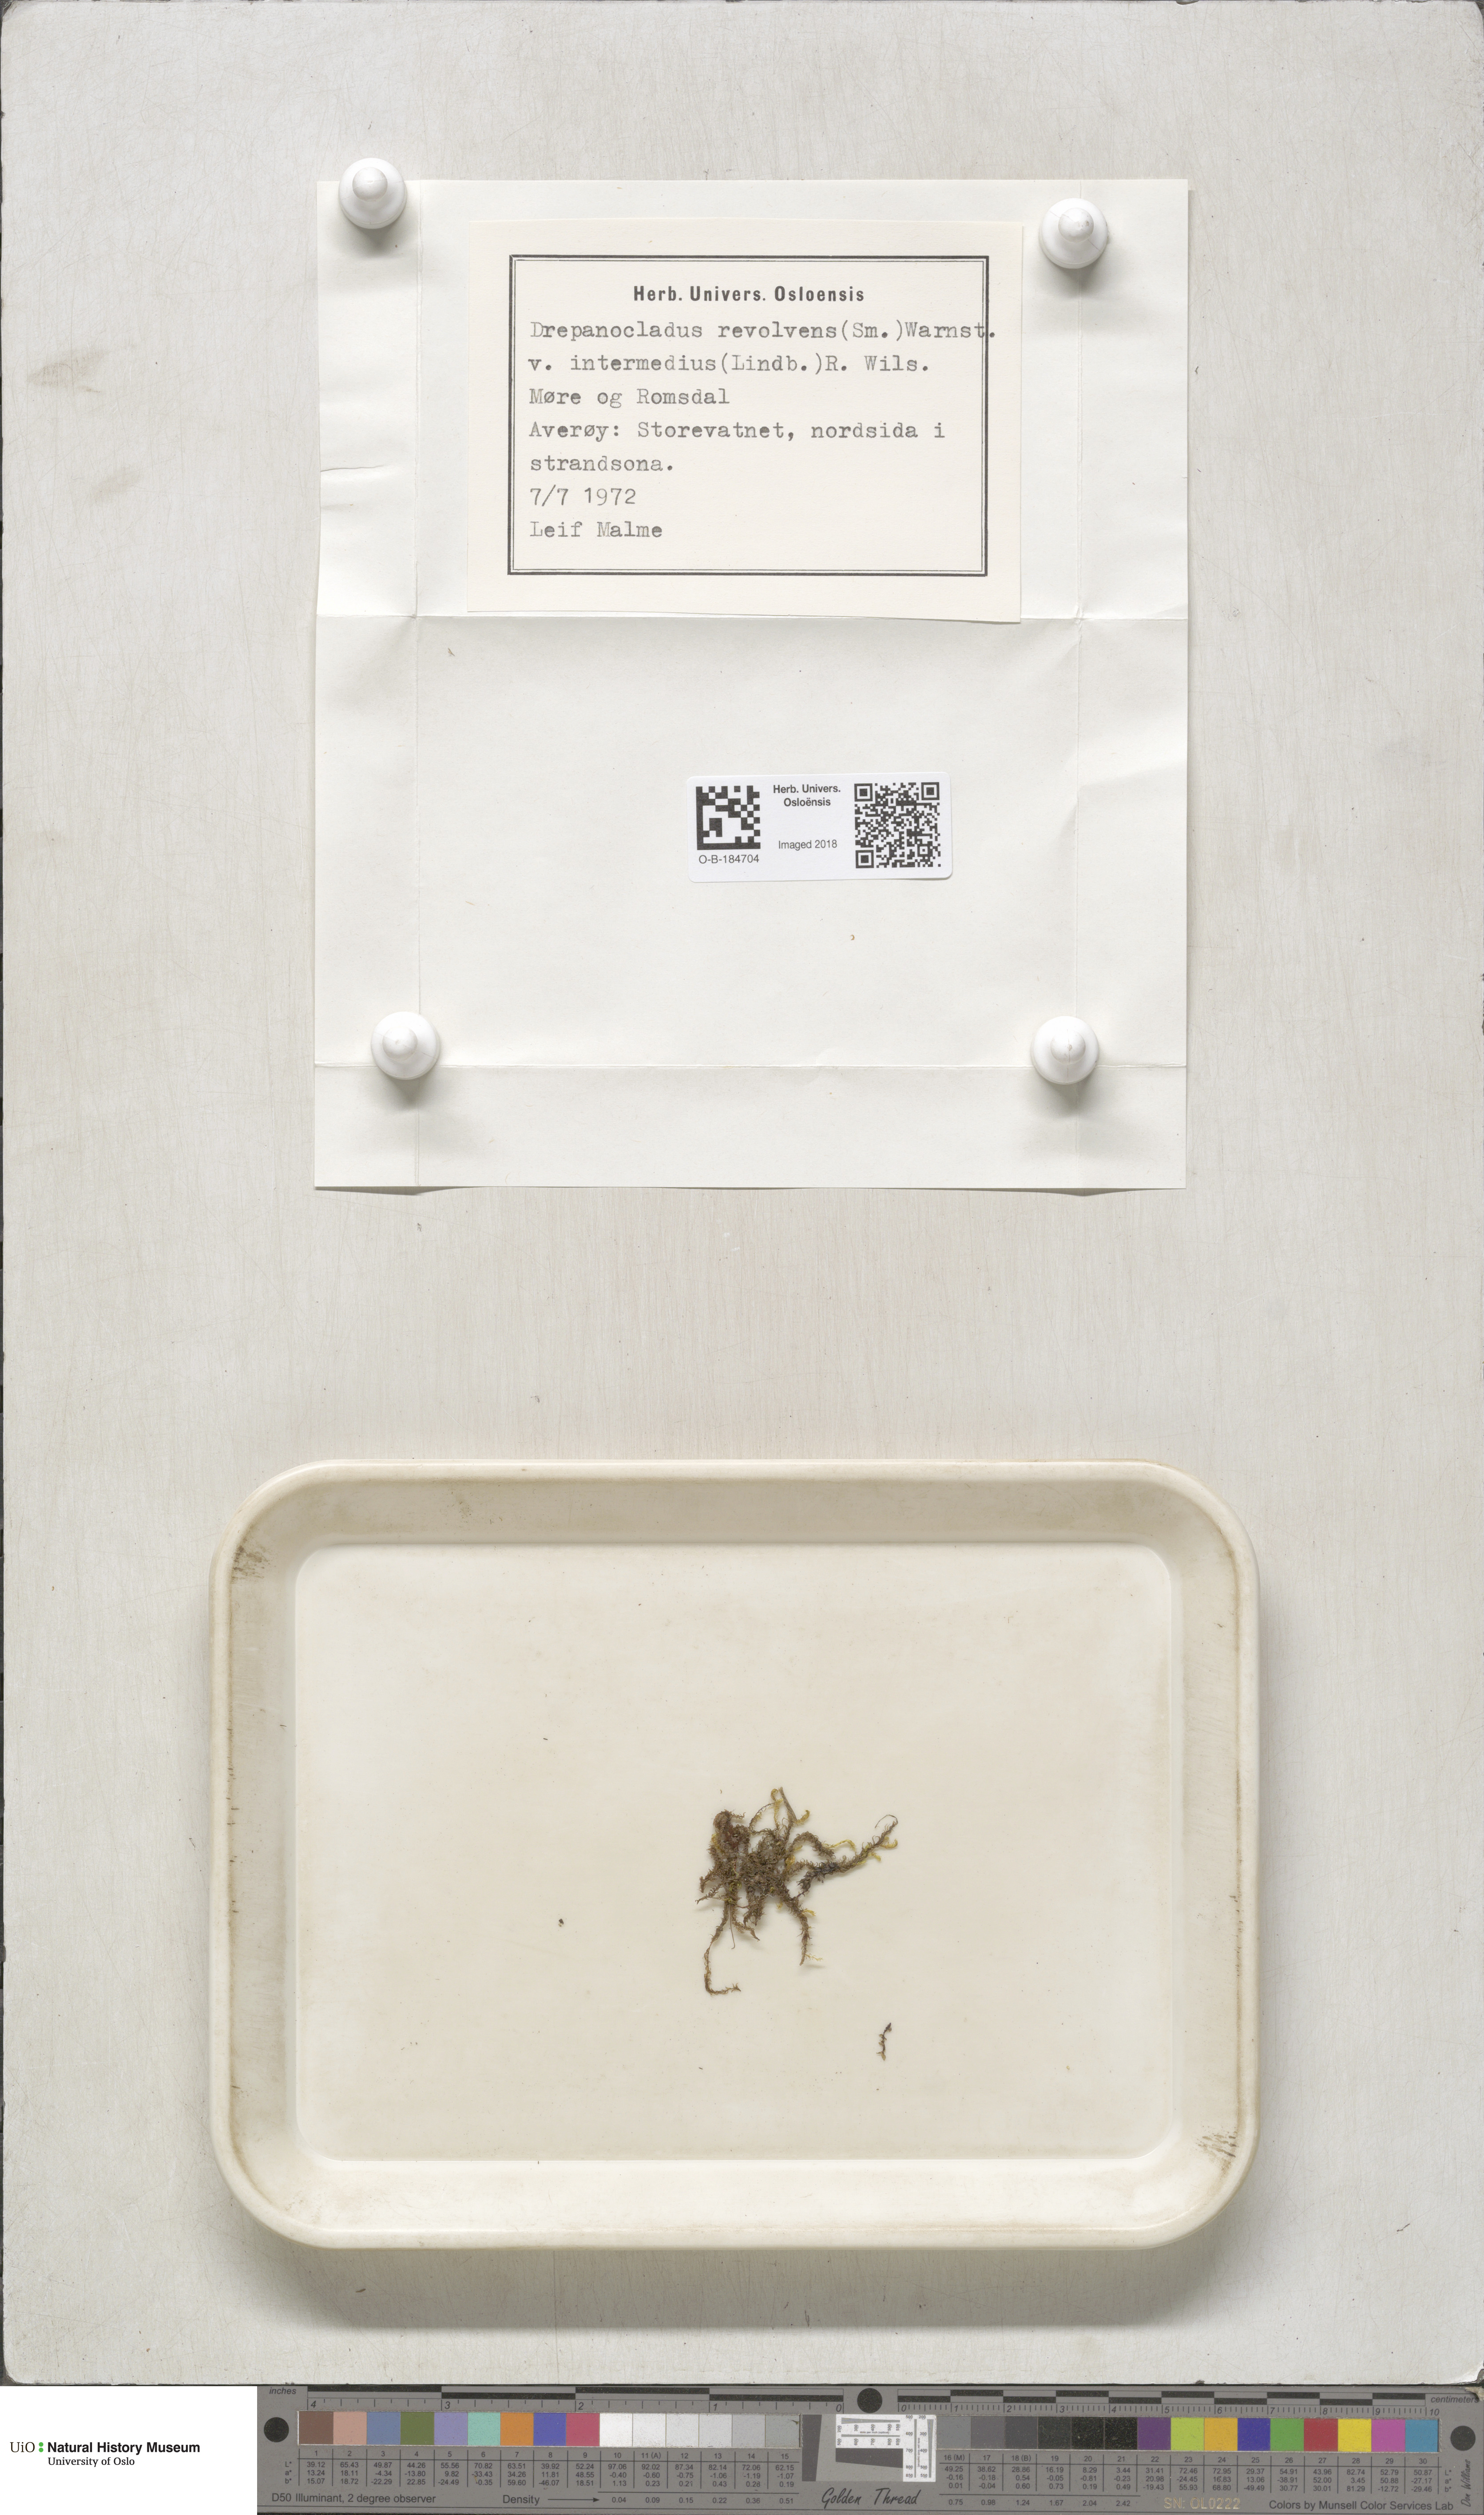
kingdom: Plantae
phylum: Bryophyta
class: Bryopsida
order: Hypnales
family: Scorpidiaceae
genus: Scorpidium
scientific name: Scorpidium cossonii
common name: Cosson's hook moss
